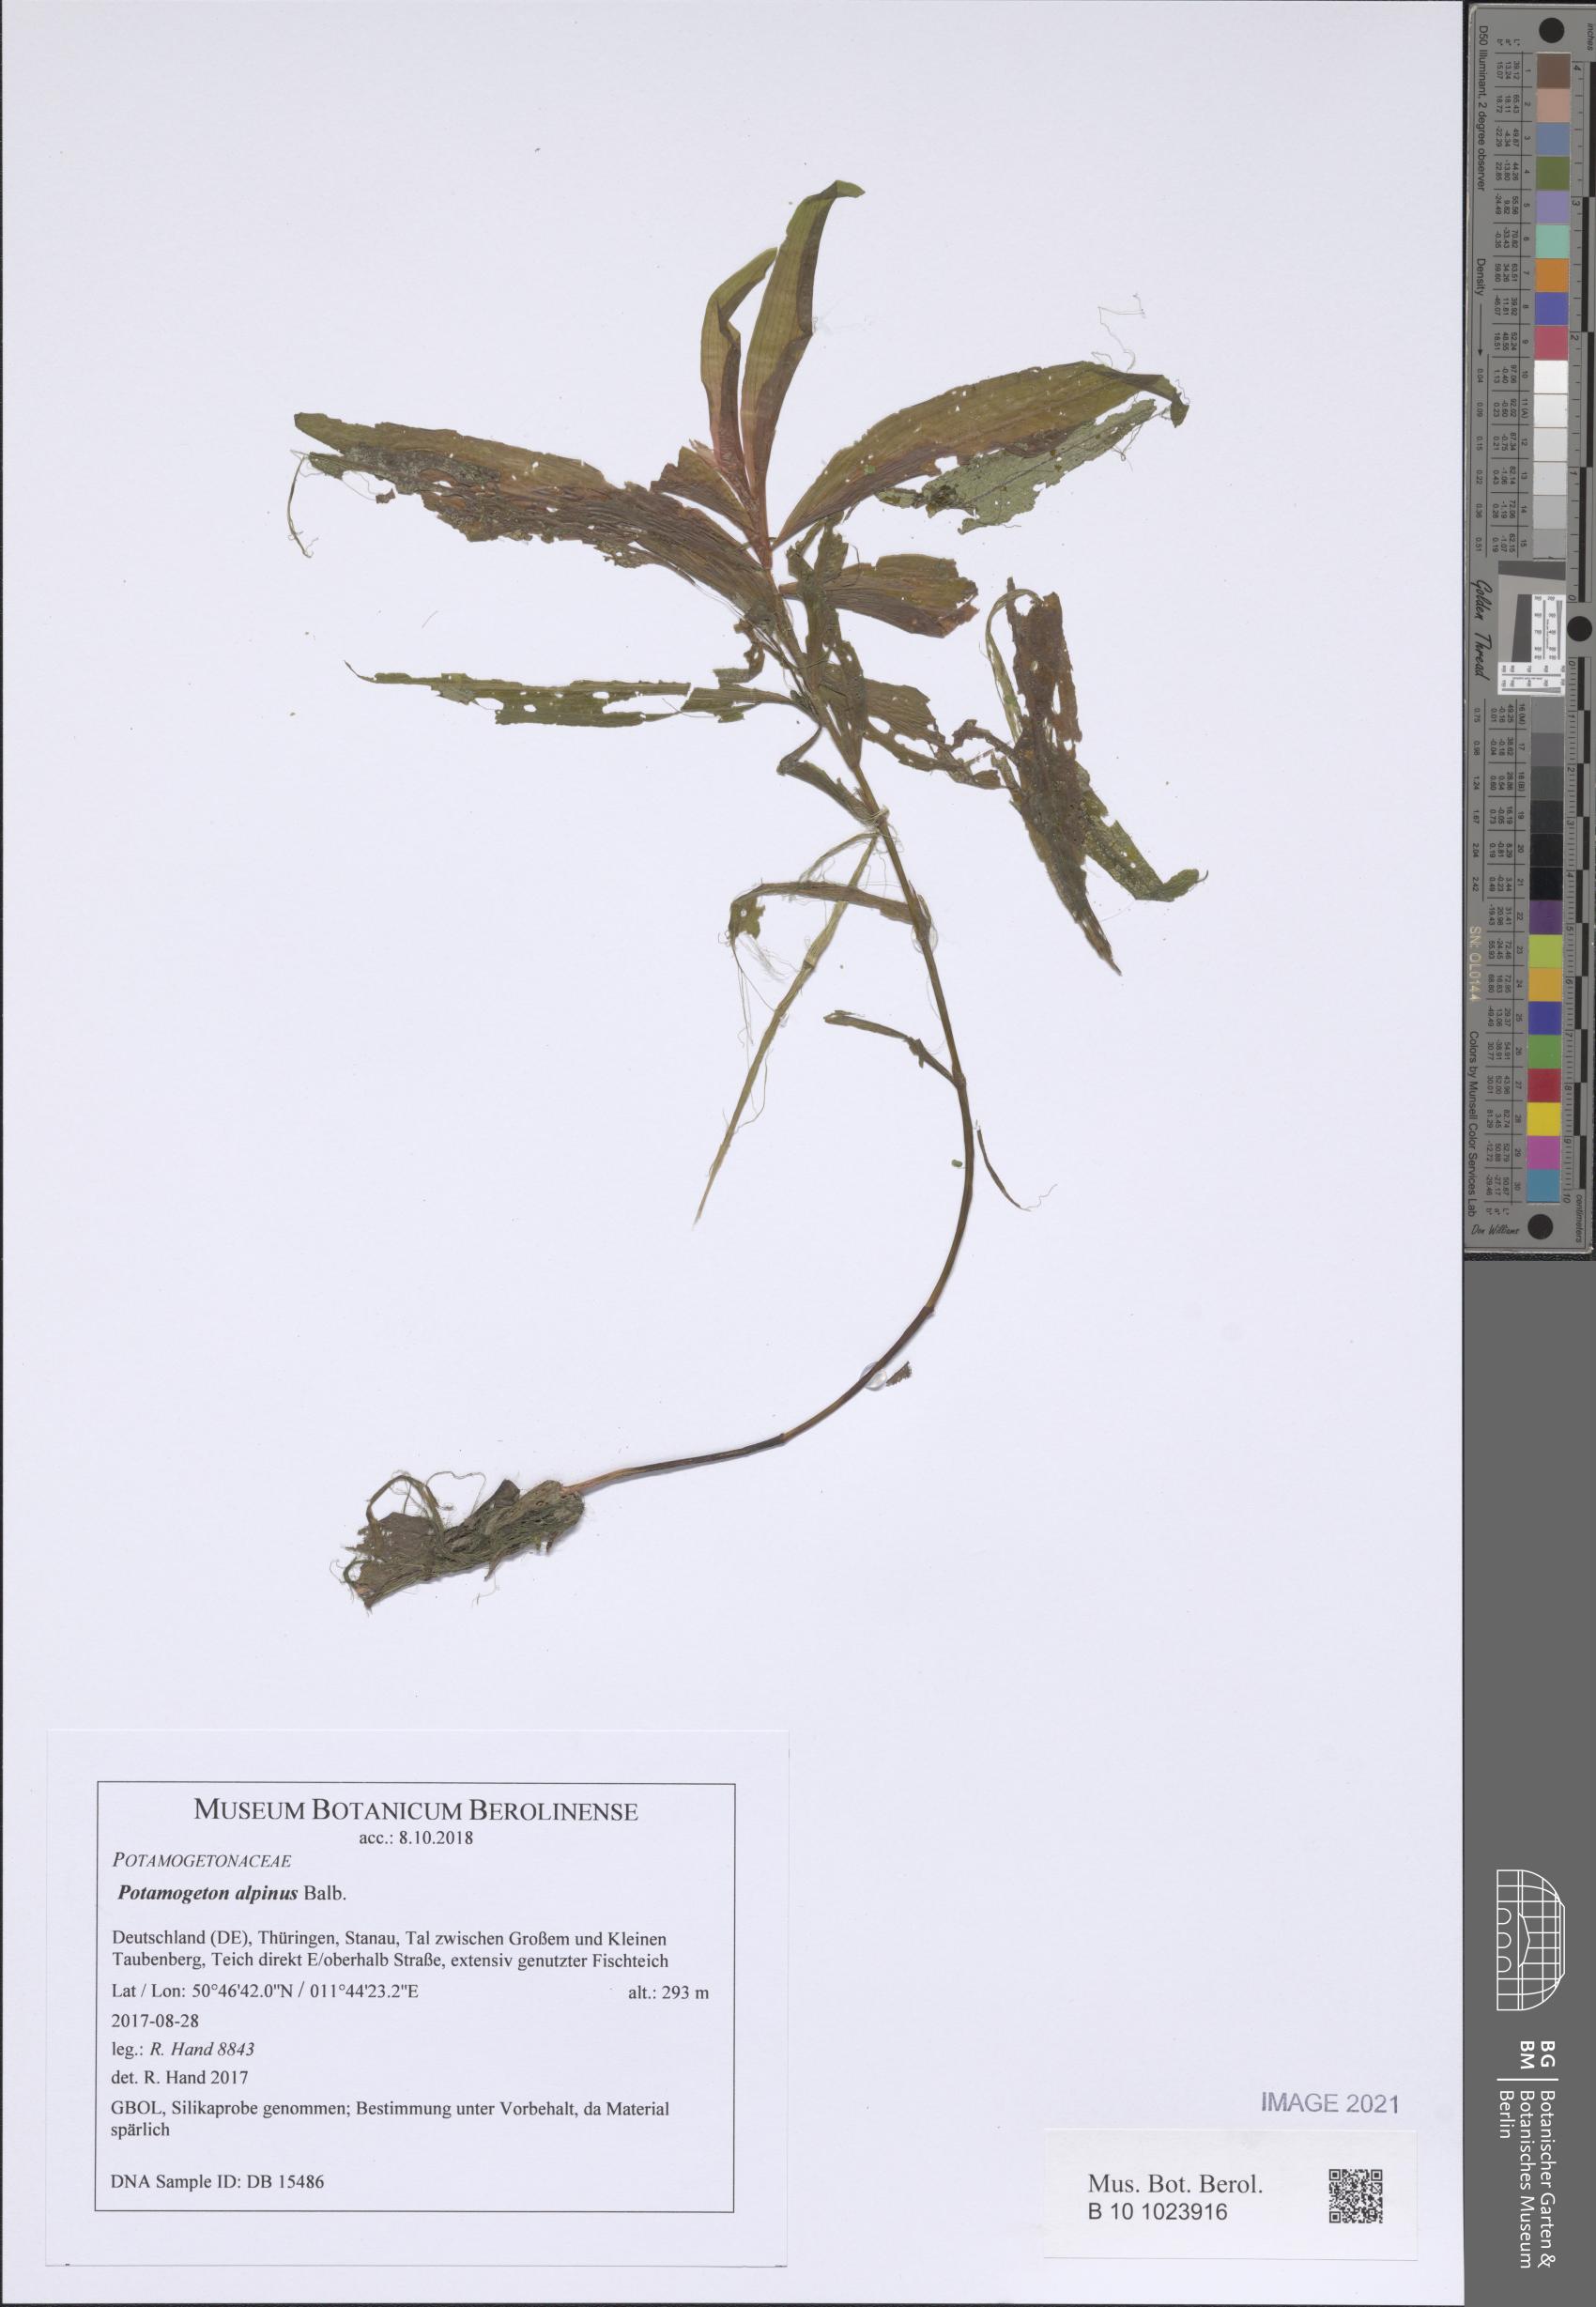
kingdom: Plantae
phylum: Tracheophyta
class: Liliopsida
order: Alismatales
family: Potamogetonaceae
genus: Potamogeton
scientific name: Potamogeton alpinus
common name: Red pondweed
